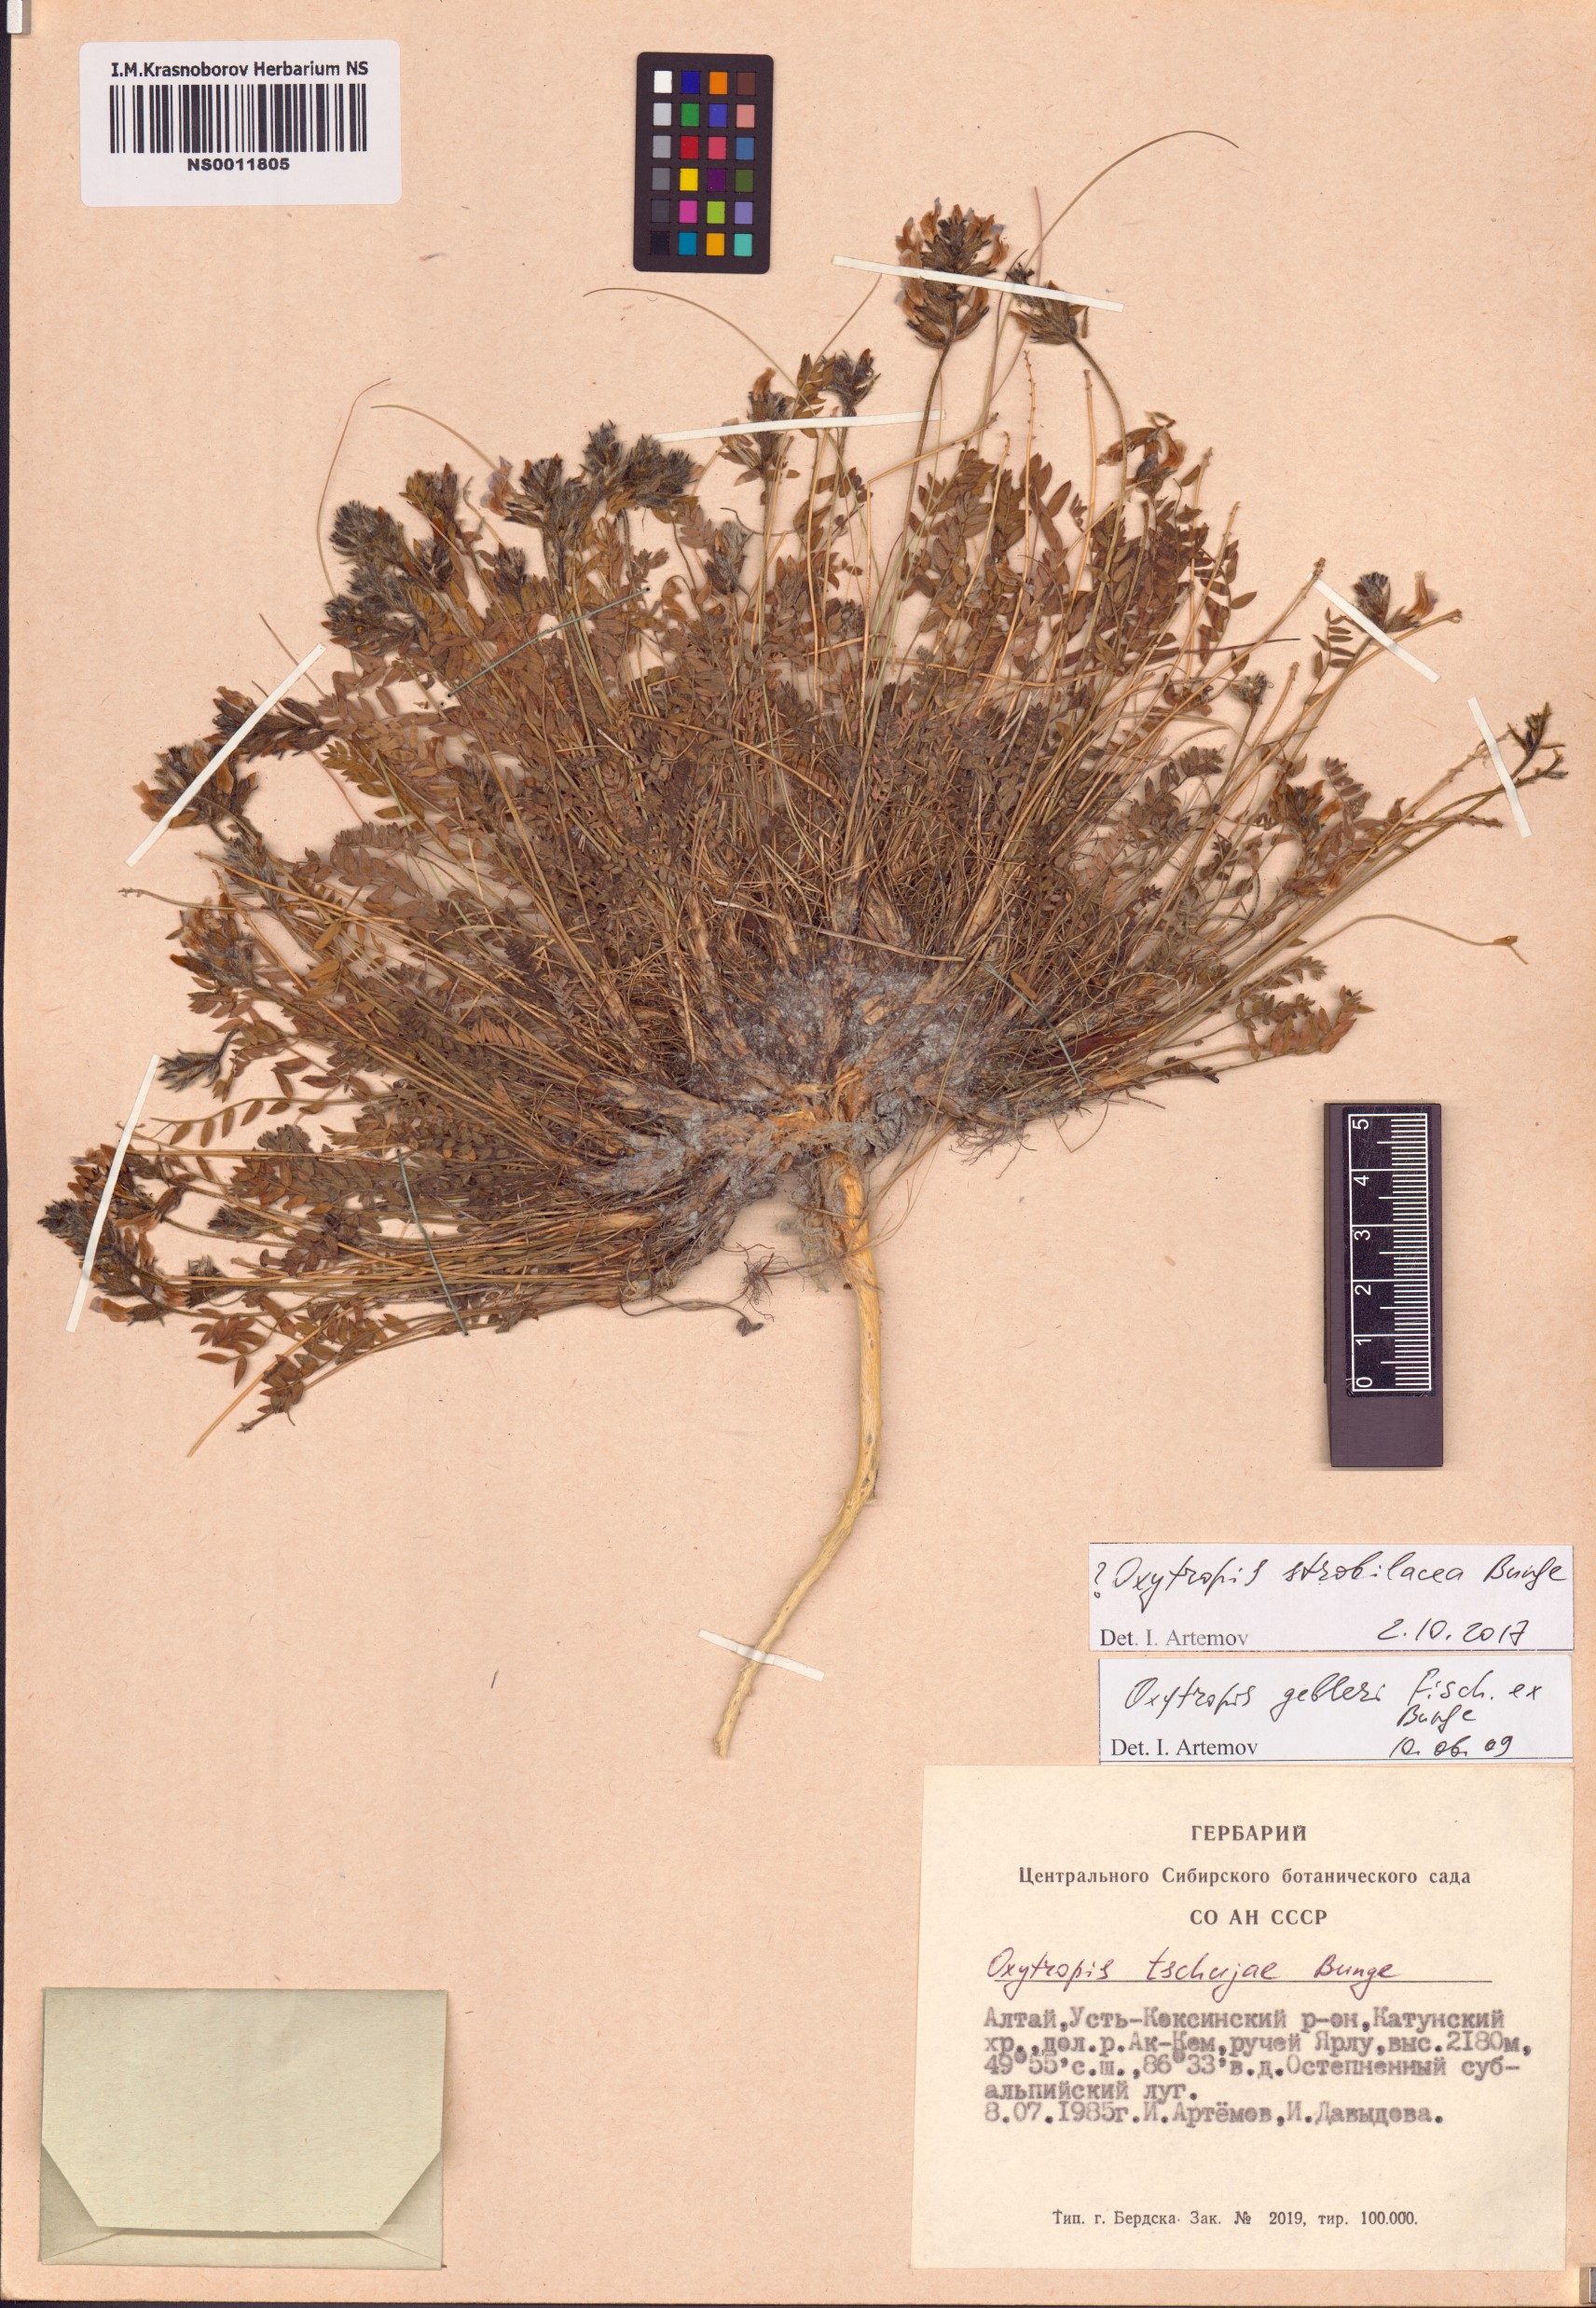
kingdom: Plantae
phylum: Tracheophyta
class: Magnoliopsida
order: Fabales
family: Fabaceae
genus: Oxytropis
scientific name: Oxytropis strobilacea
